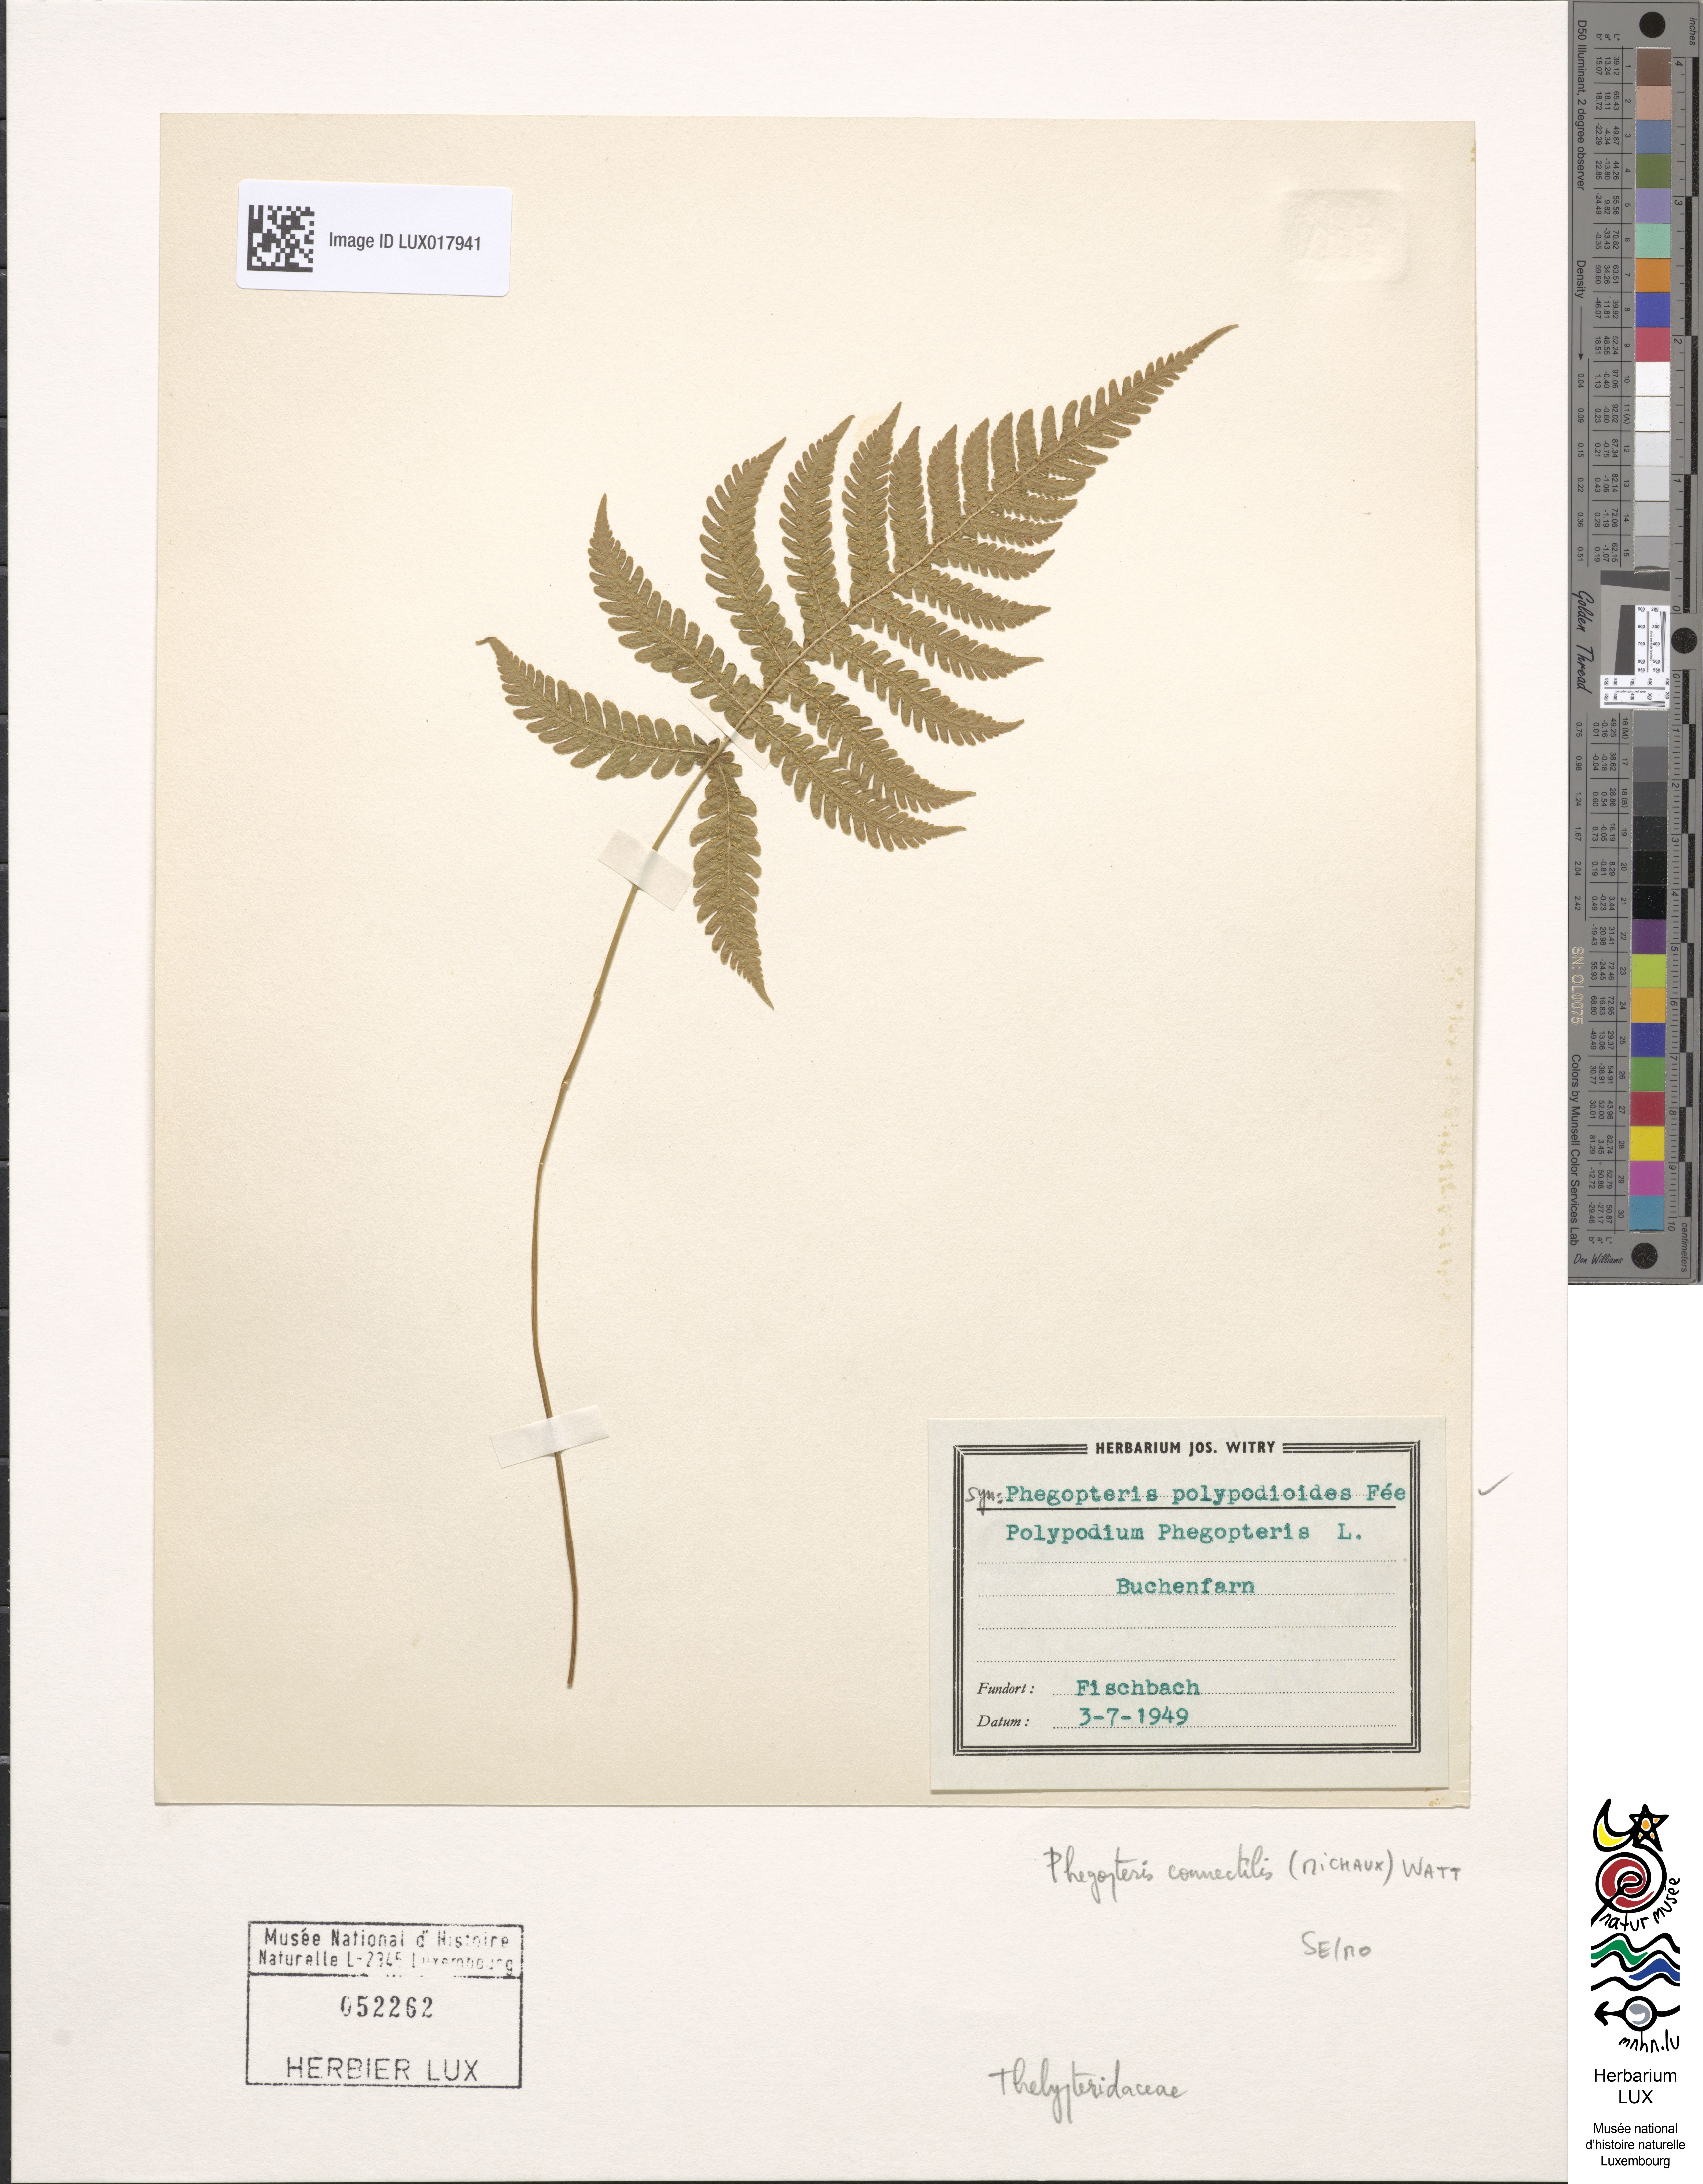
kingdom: Plantae
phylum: Tracheophyta
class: Polypodiopsida
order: Polypodiales
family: Thelypteridaceae
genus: Phegopteris
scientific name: Phegopteris connectilis
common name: Beech fern
